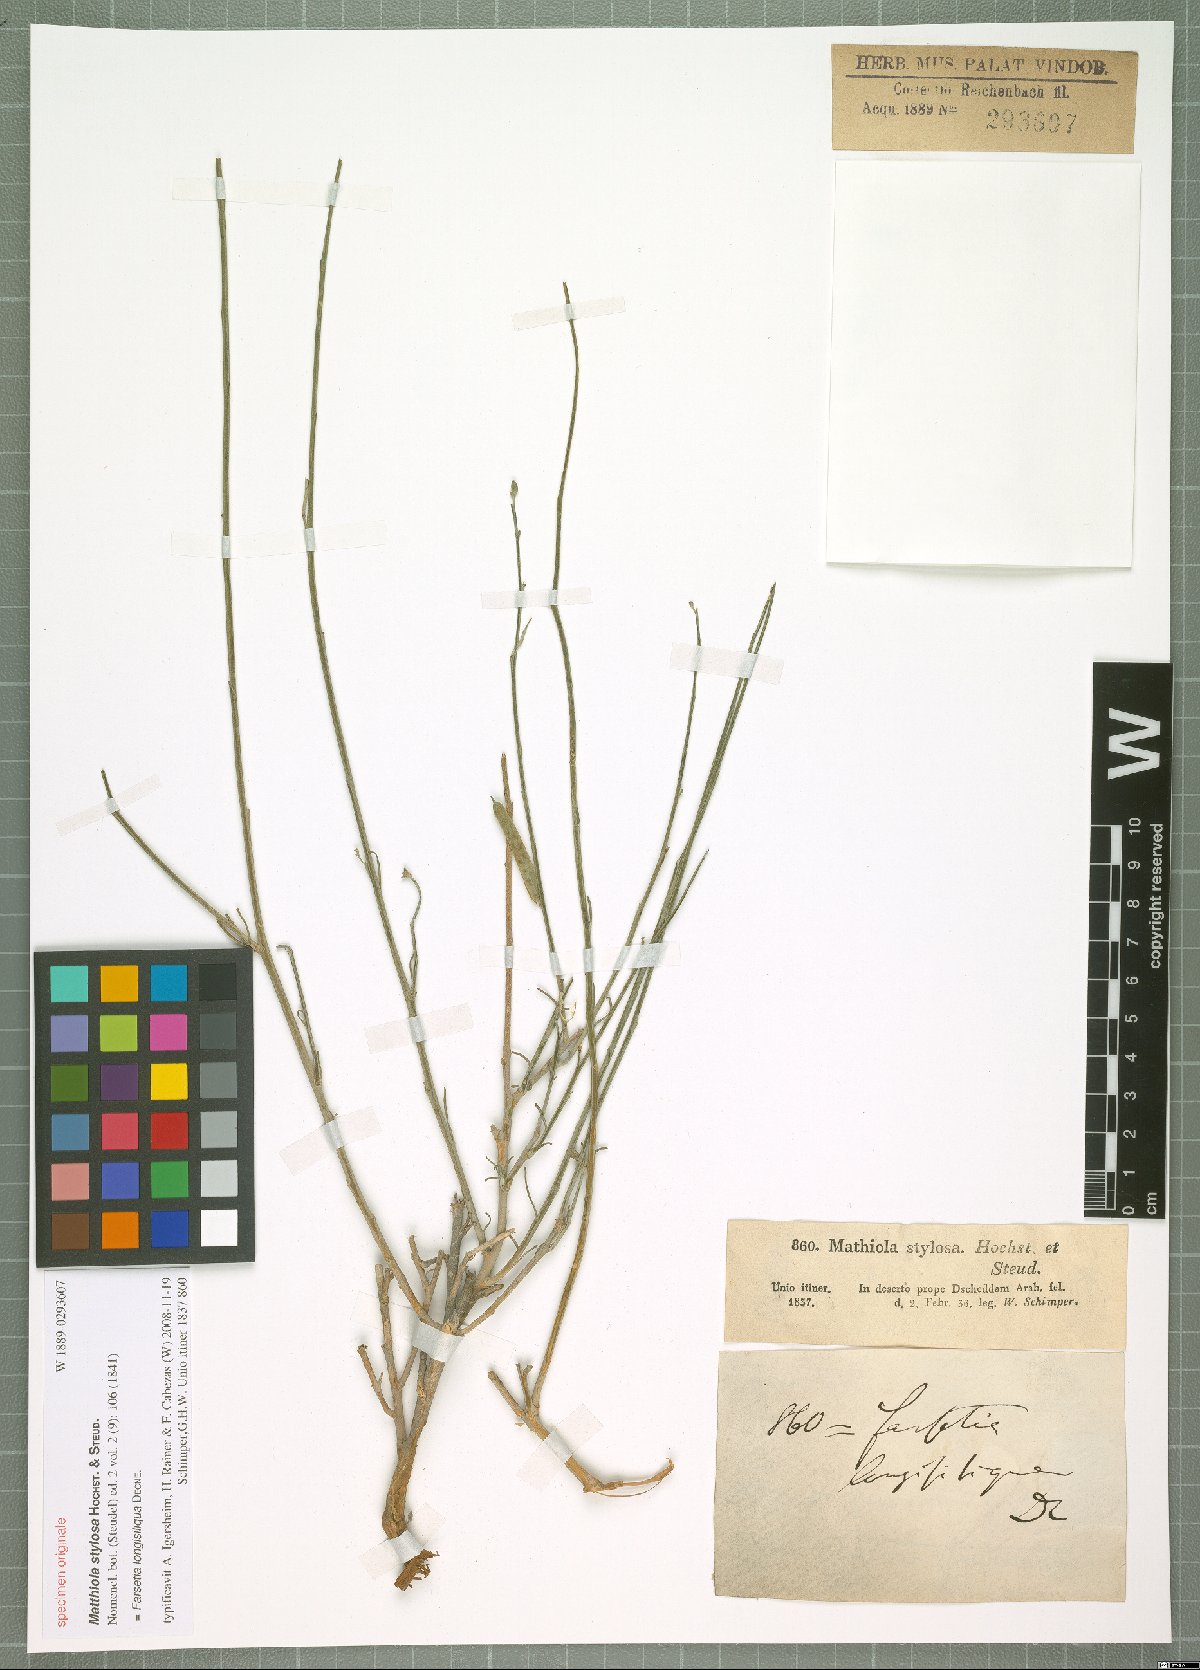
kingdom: Plantae
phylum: Tracheophyta
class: Magnoliopsida
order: Brassicales
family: Brassicaceae
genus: Farsetia
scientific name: Farsetia longisiliqua
